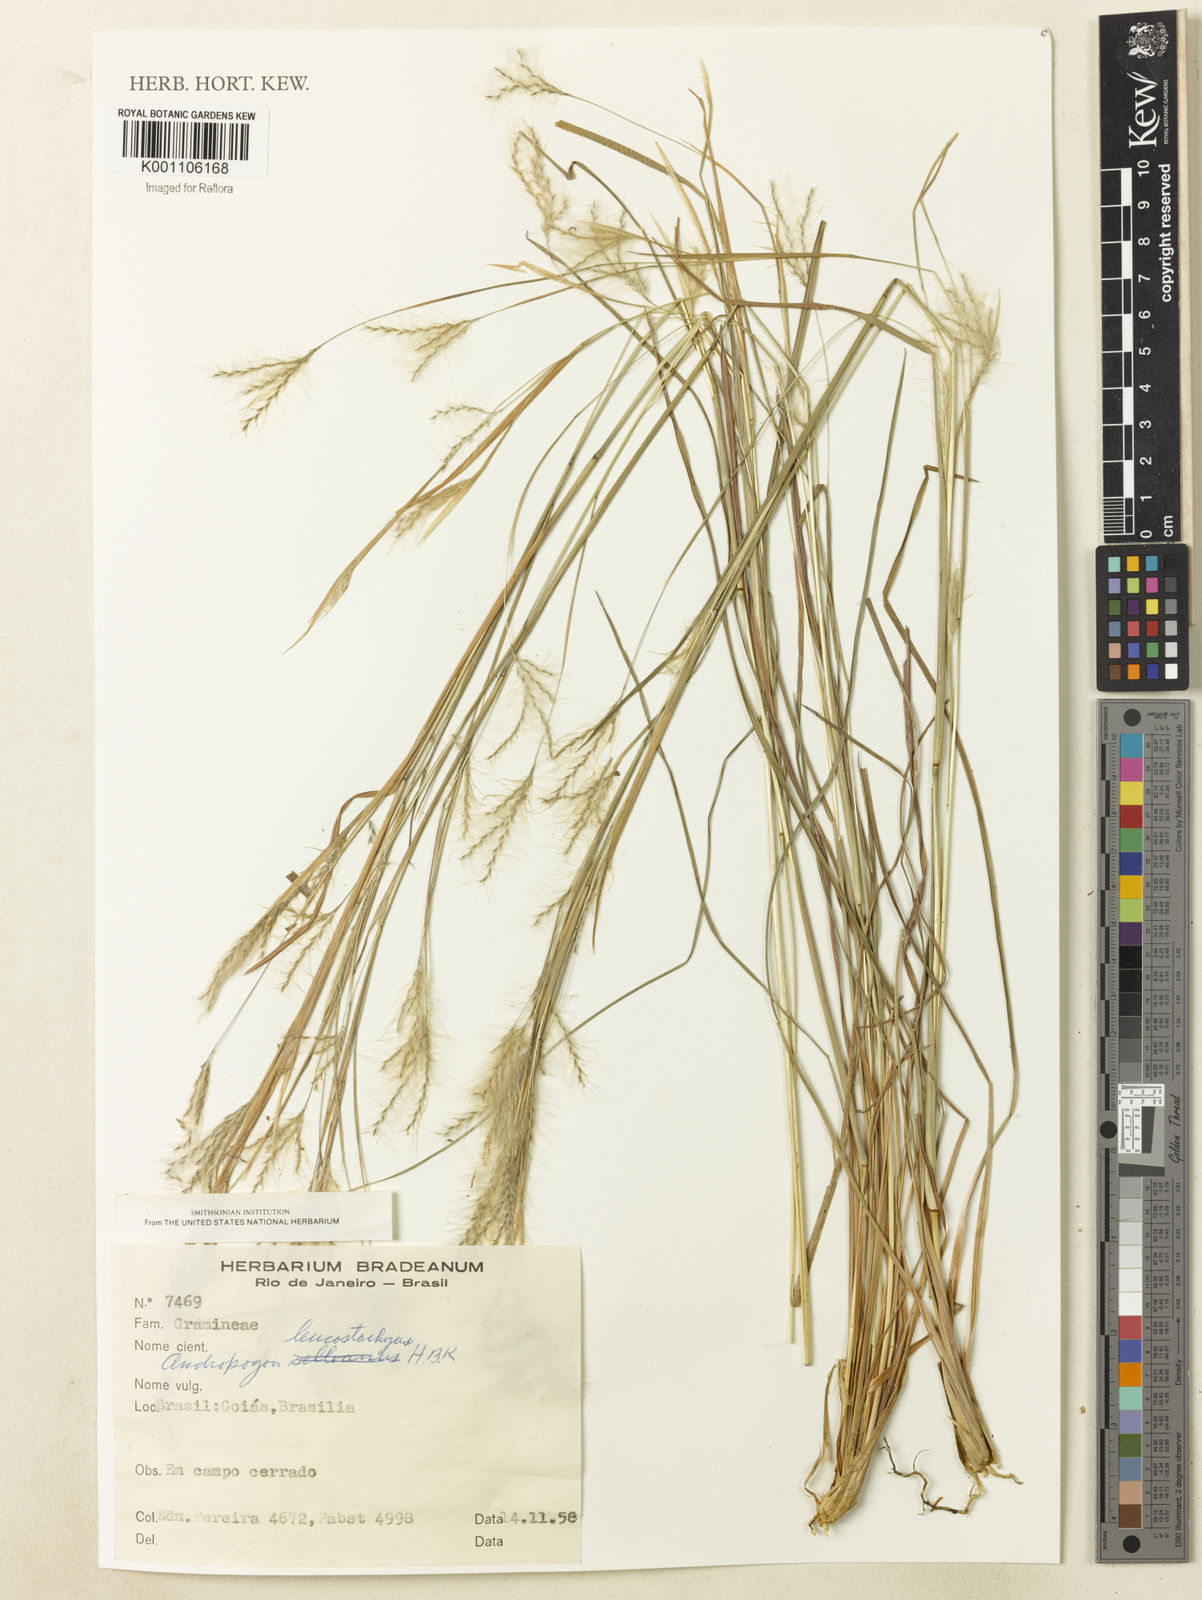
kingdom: Plantae
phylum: Tracheophyta
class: Liliopsida
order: Poales
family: Poaceae
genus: Andropogon
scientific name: Andropogon leucostachyus
